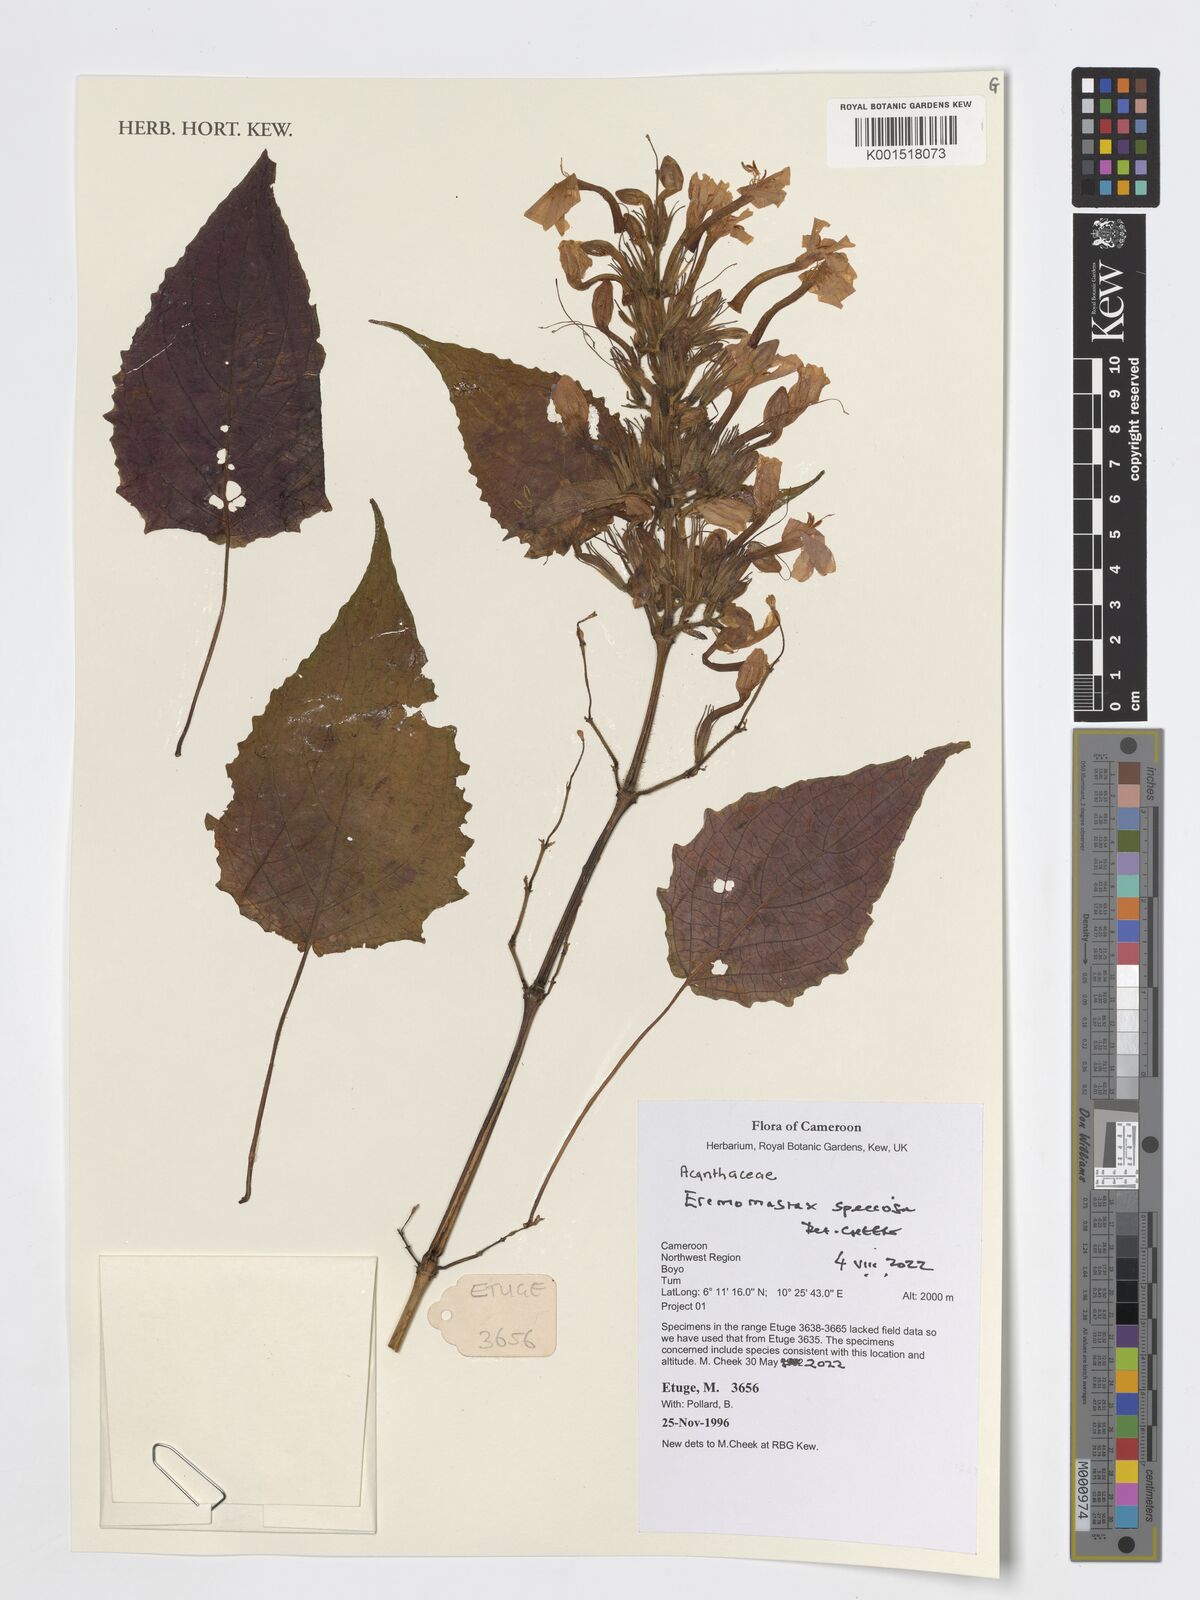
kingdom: Plantae
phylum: Tracheophyta
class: Magnoliopsida
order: Lamiales
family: Acanthaceae
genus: Eremomastax
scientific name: Eremomastax speciosa
